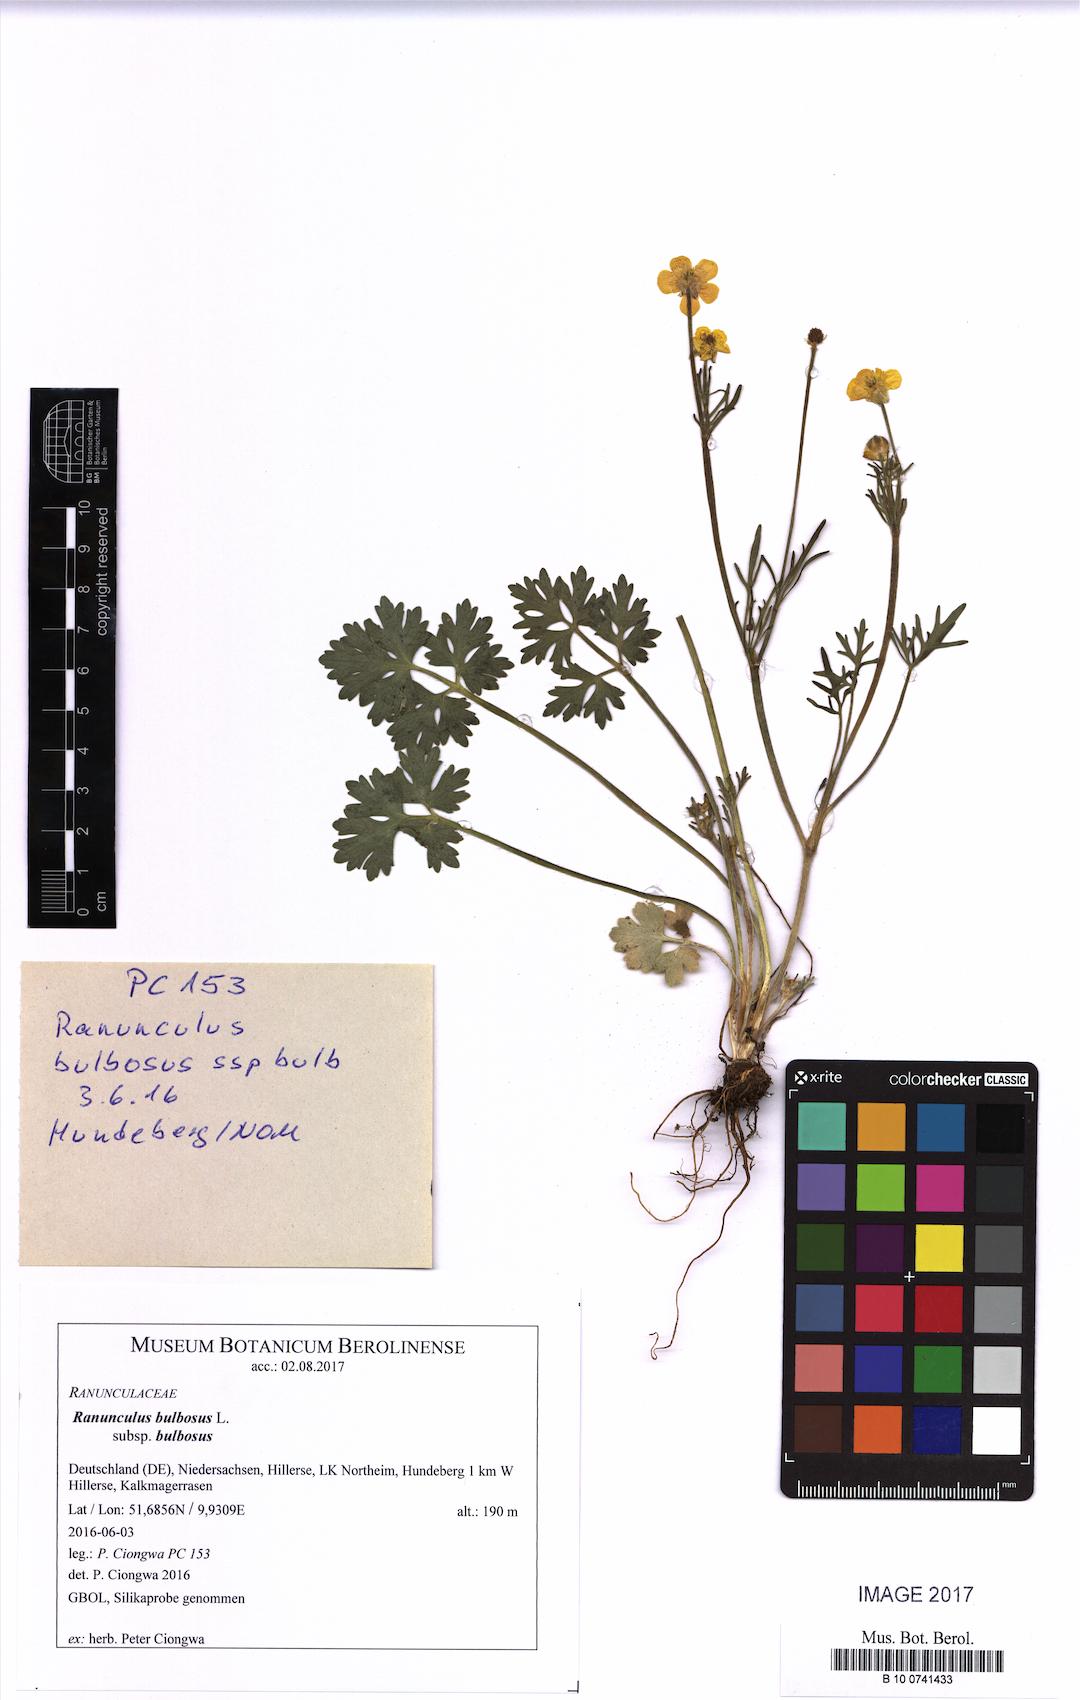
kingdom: Plantae
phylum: Tracheophyta
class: Magnoliopsida
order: Ranunculales
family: Ranunculaceae
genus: Ranunculus
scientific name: Ranunculus bulbosus
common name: Bulbous buttercup
